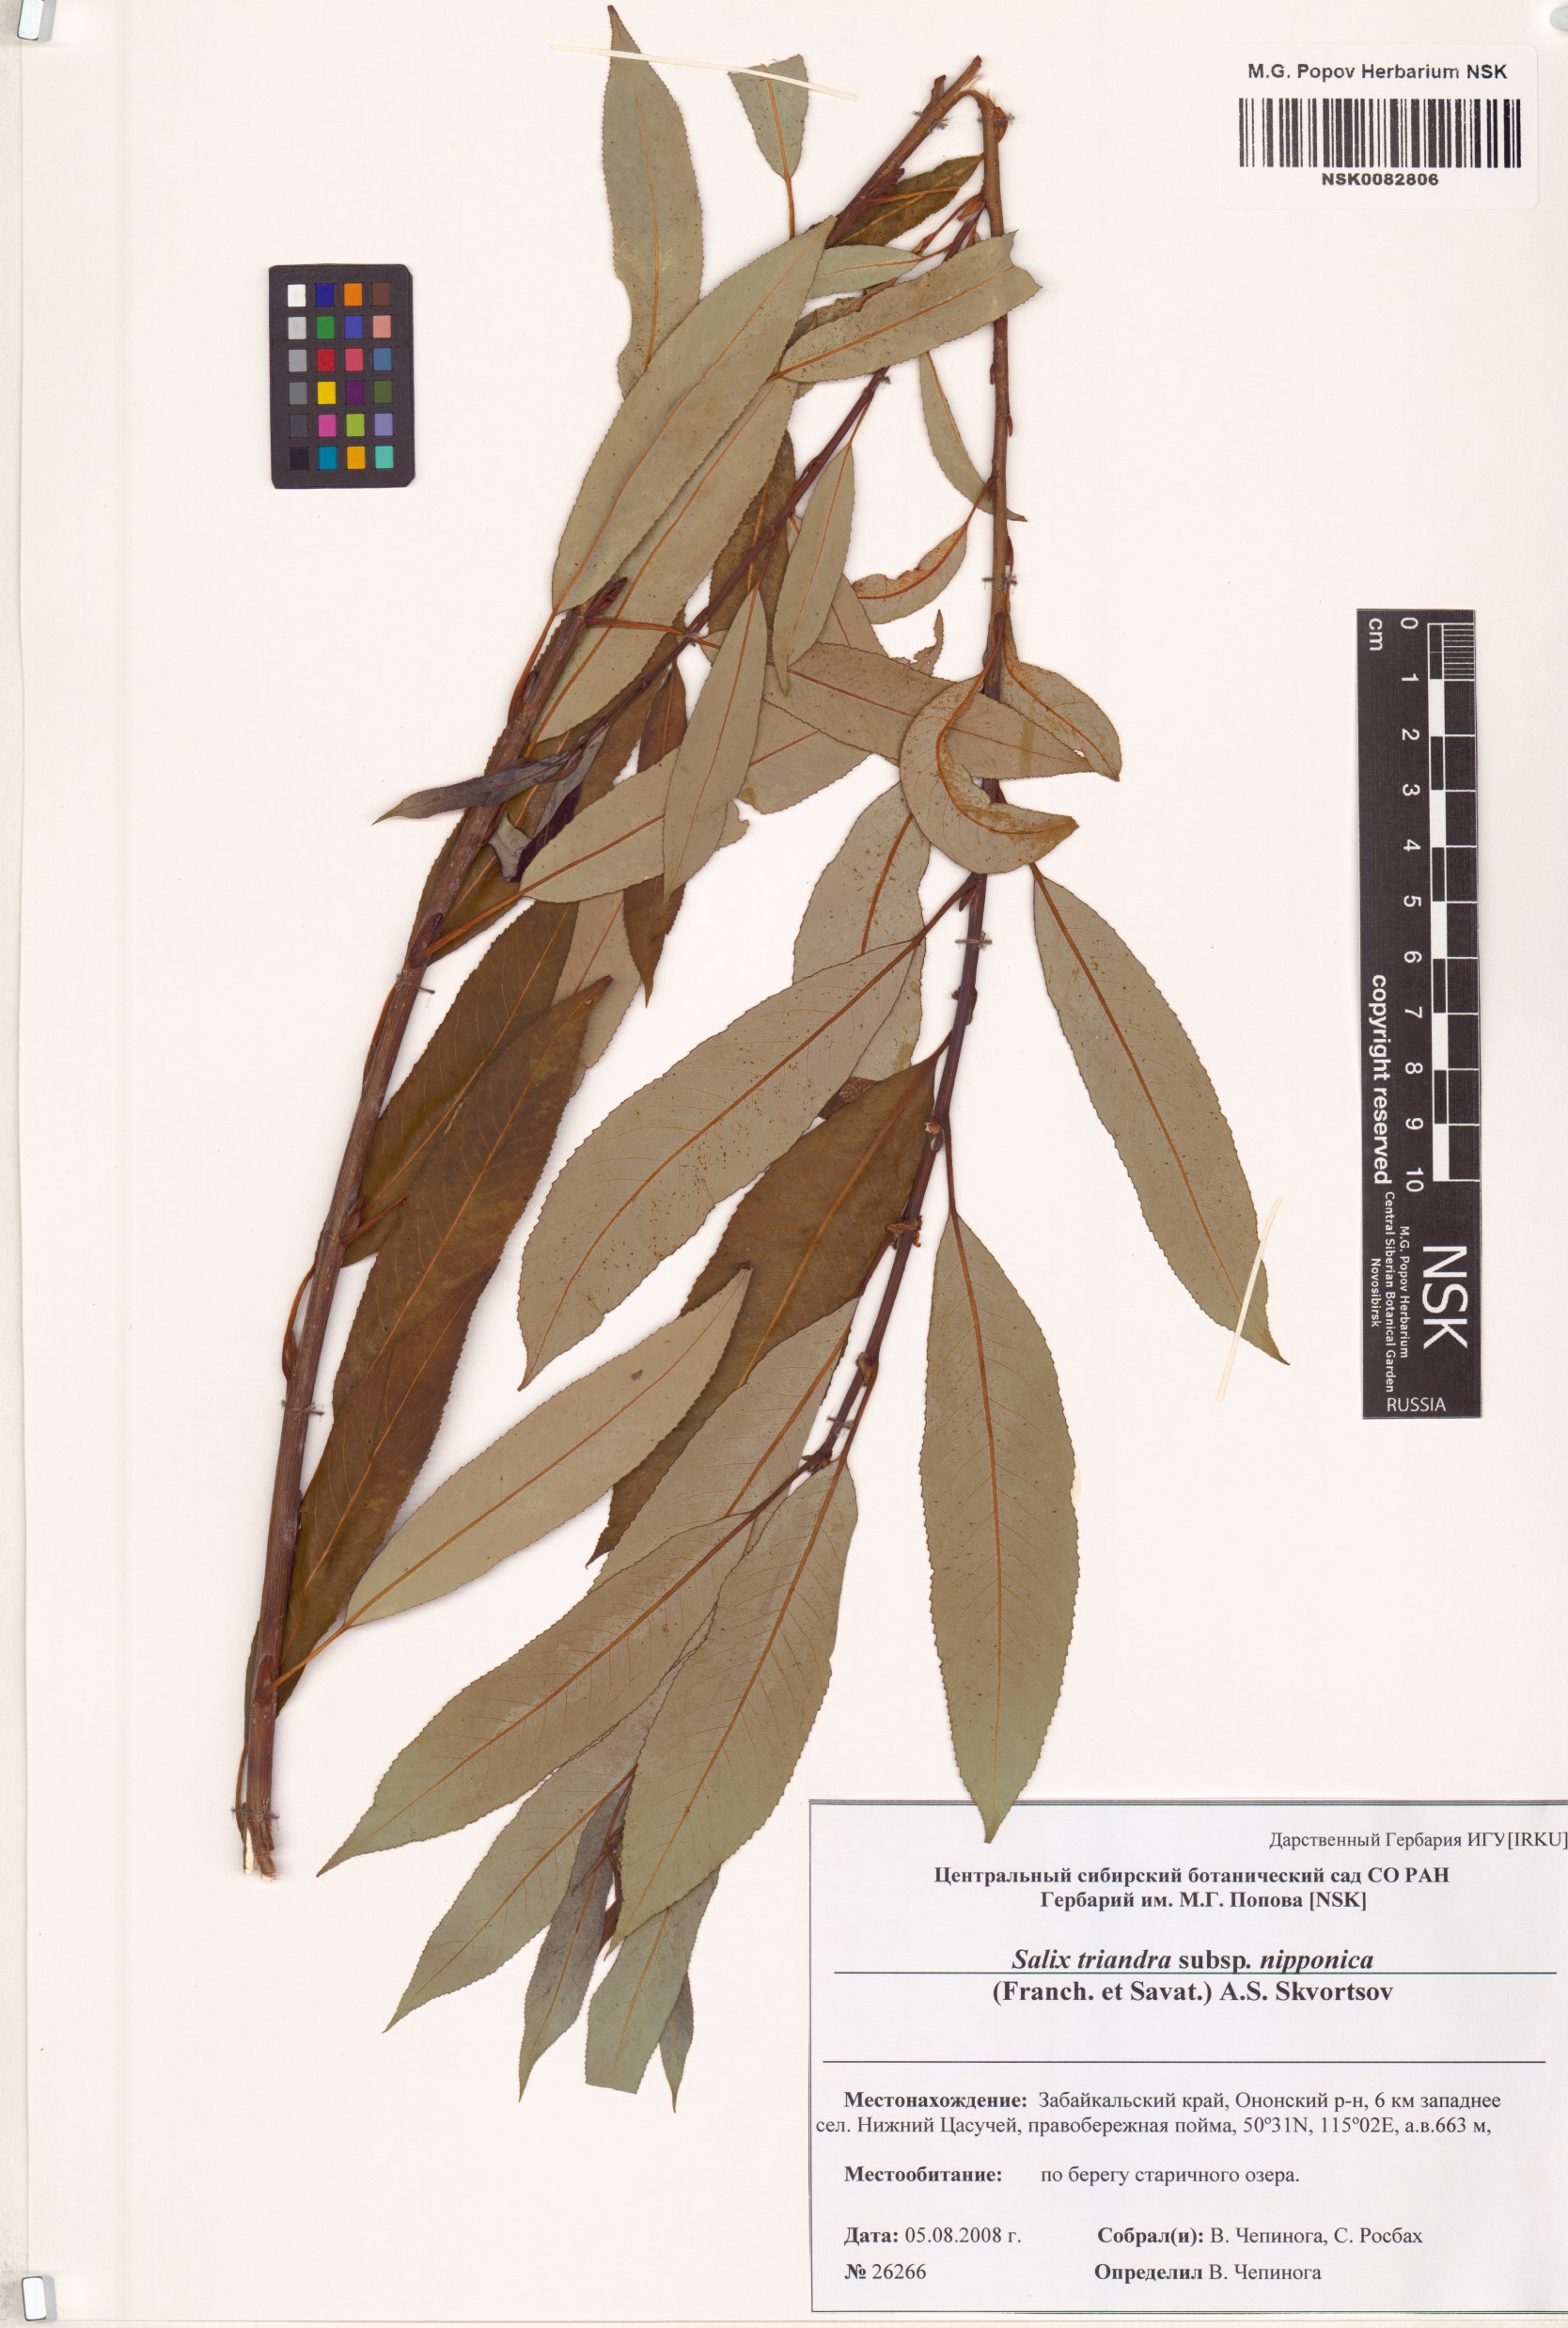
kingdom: Plantae
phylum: Tracheophyta
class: Magnoliopsida
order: Malpighiales
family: Salicaceae
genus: Salix
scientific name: Salix subfragilis
